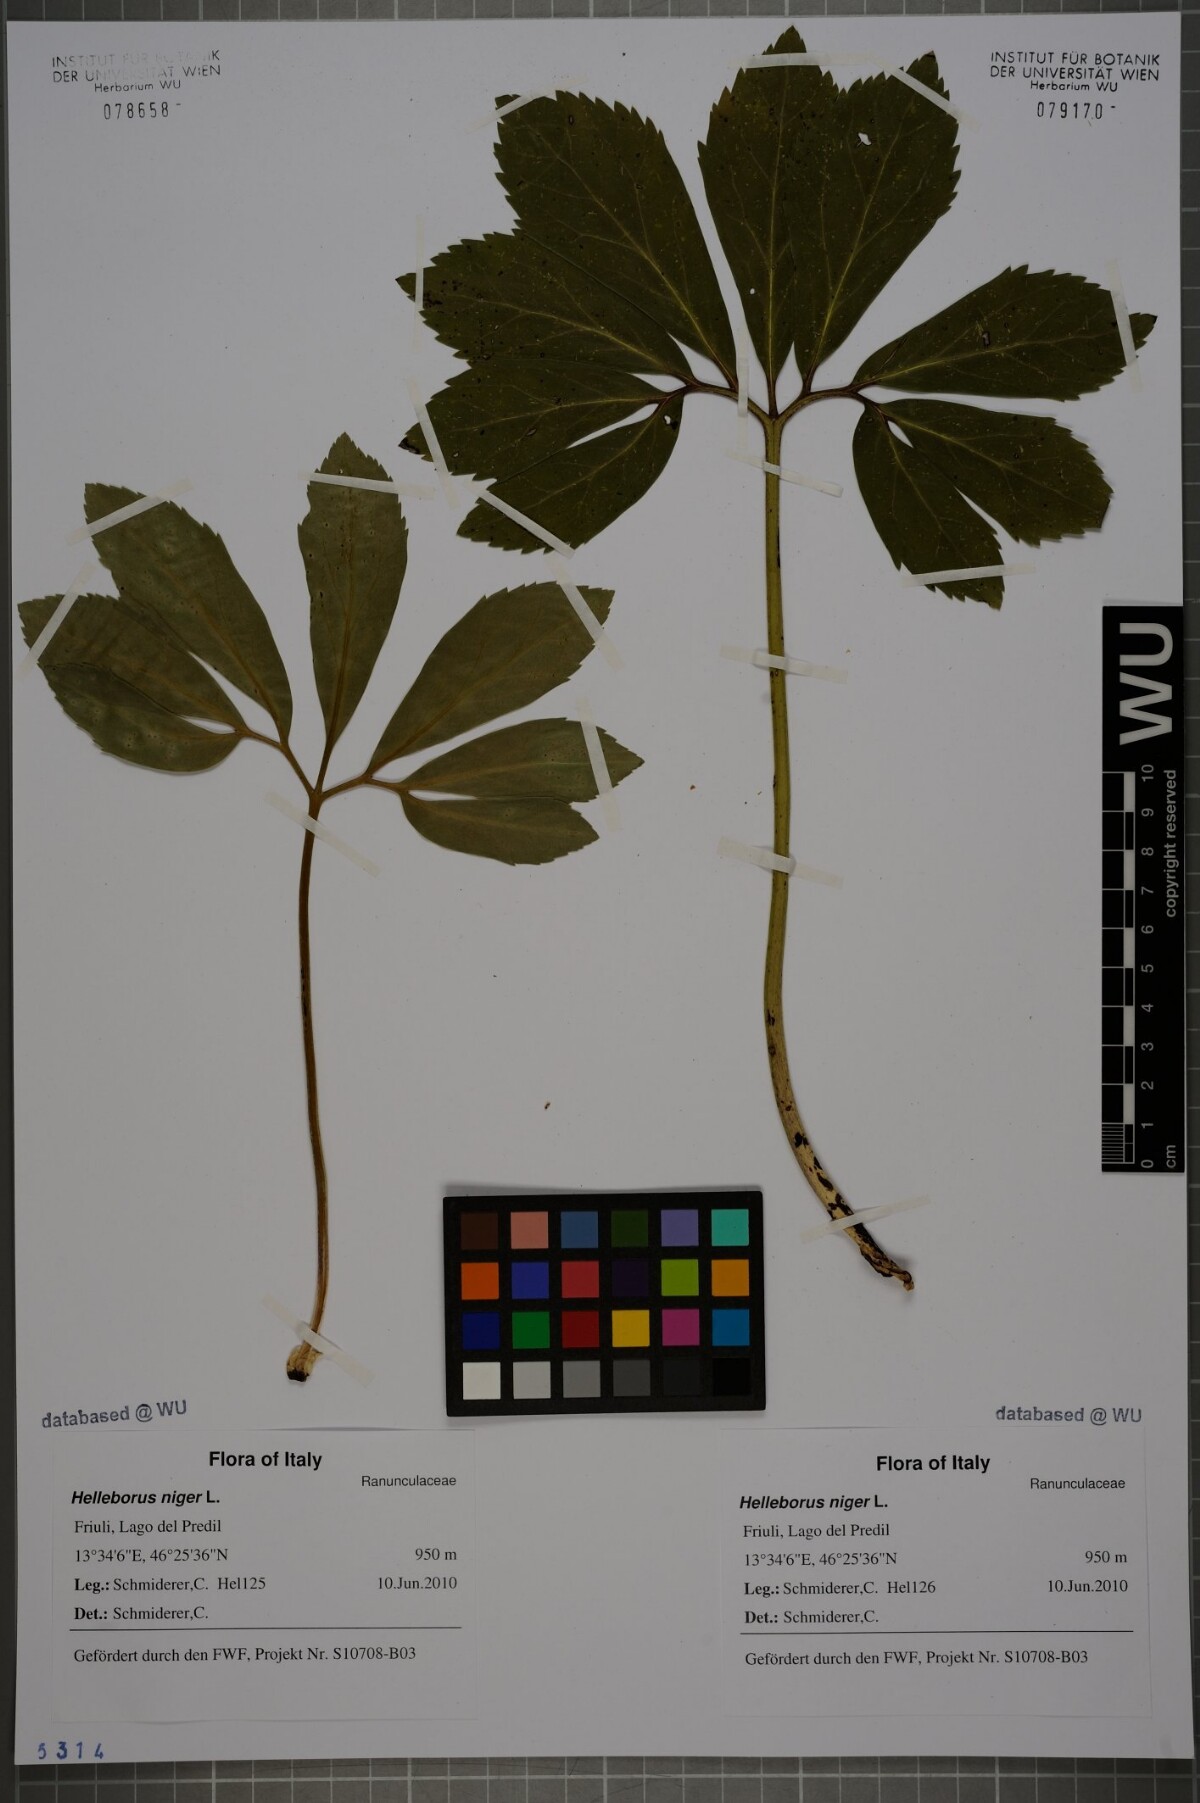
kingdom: Plantae
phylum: Tracheophyta
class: Magnoliopsida
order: Ranunculales
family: Ranunculaceae
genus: Helleborus
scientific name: Helleborus niger
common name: Black hellebore
